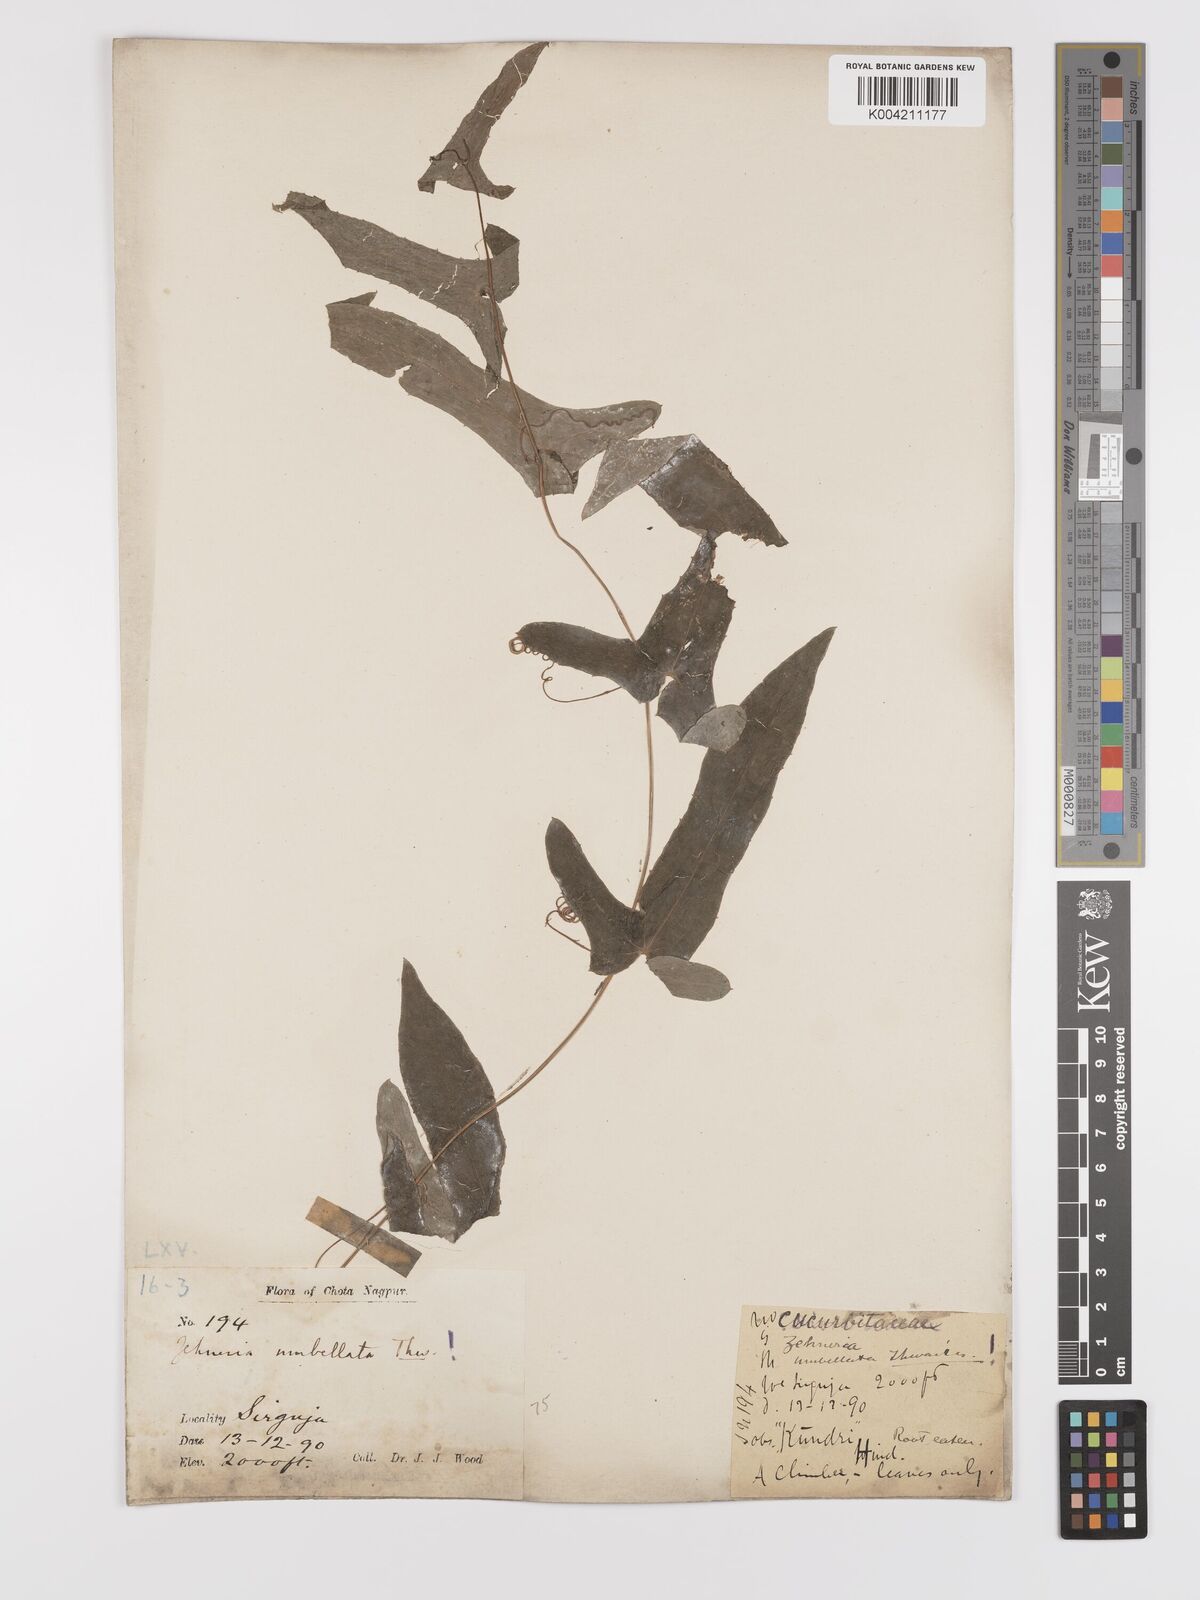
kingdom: Plantae
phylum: Tracheophyta
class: Magnoliopsida
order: Cucurbitales
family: Cucurbitaceae
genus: Solena
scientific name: Solena amplexicaulis
